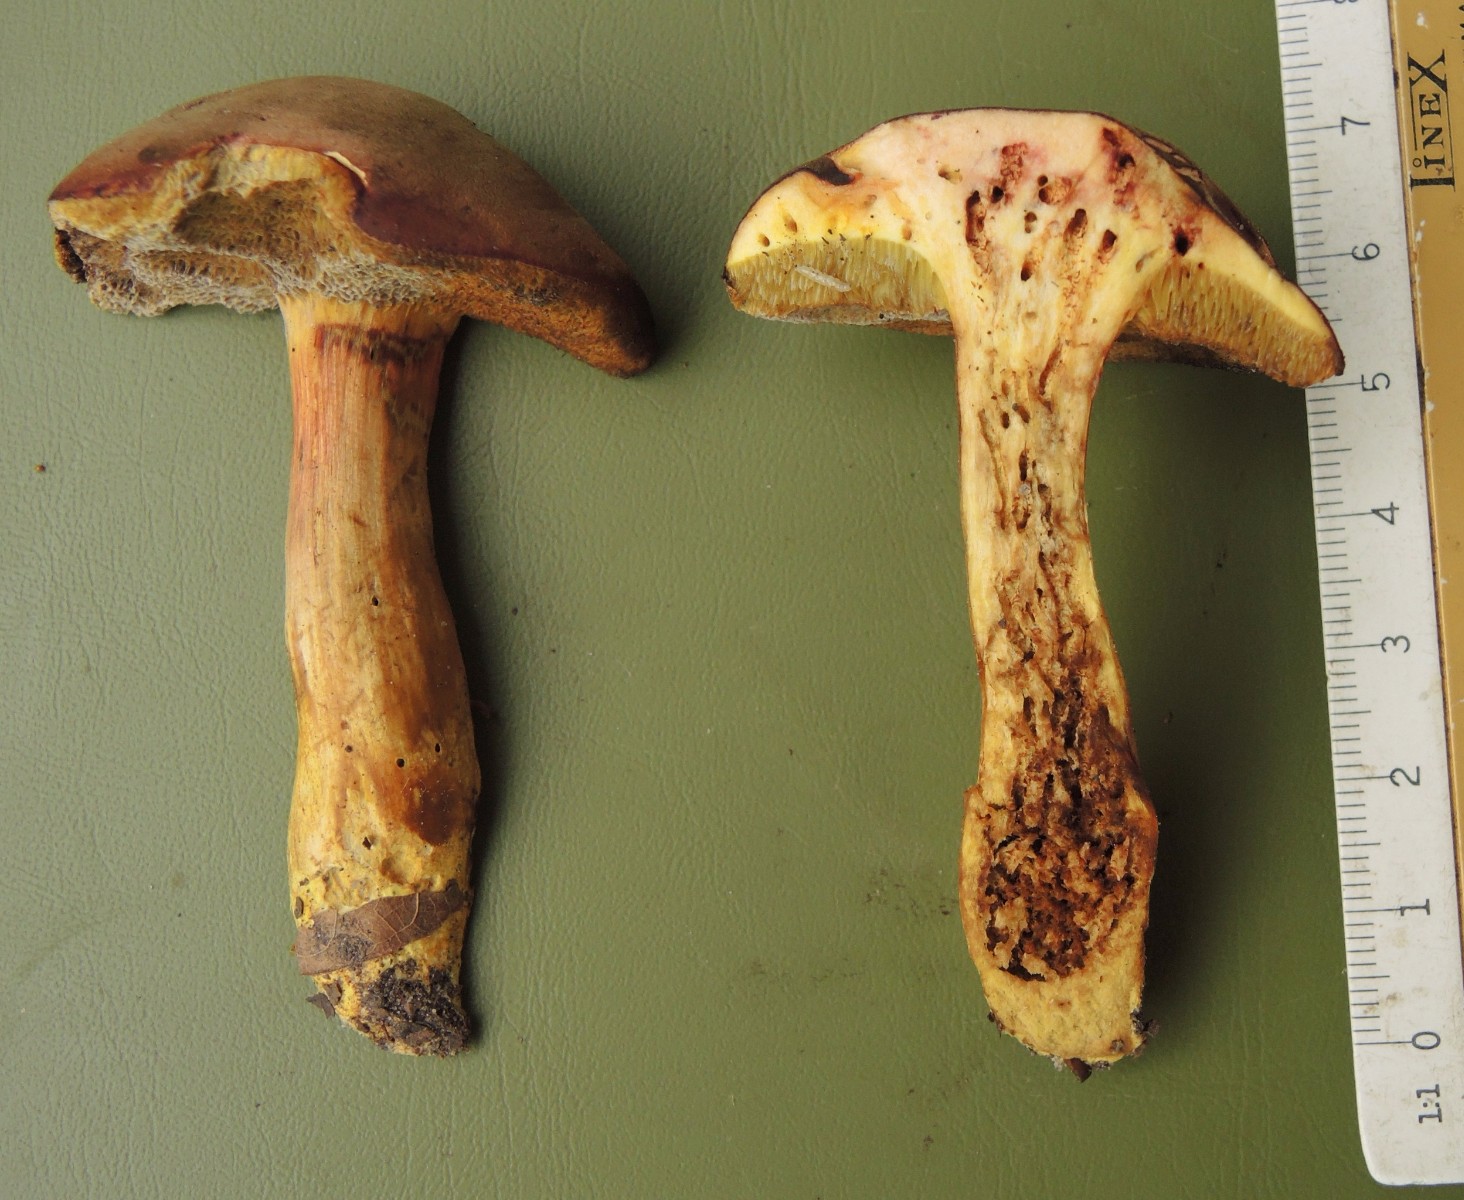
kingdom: Fungi
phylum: Basidiomycota
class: Agaricomycetes
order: Boletales
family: Boletaceae
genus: Hortiboletus
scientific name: Hortiboletus engelii
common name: fersken-rørhat
